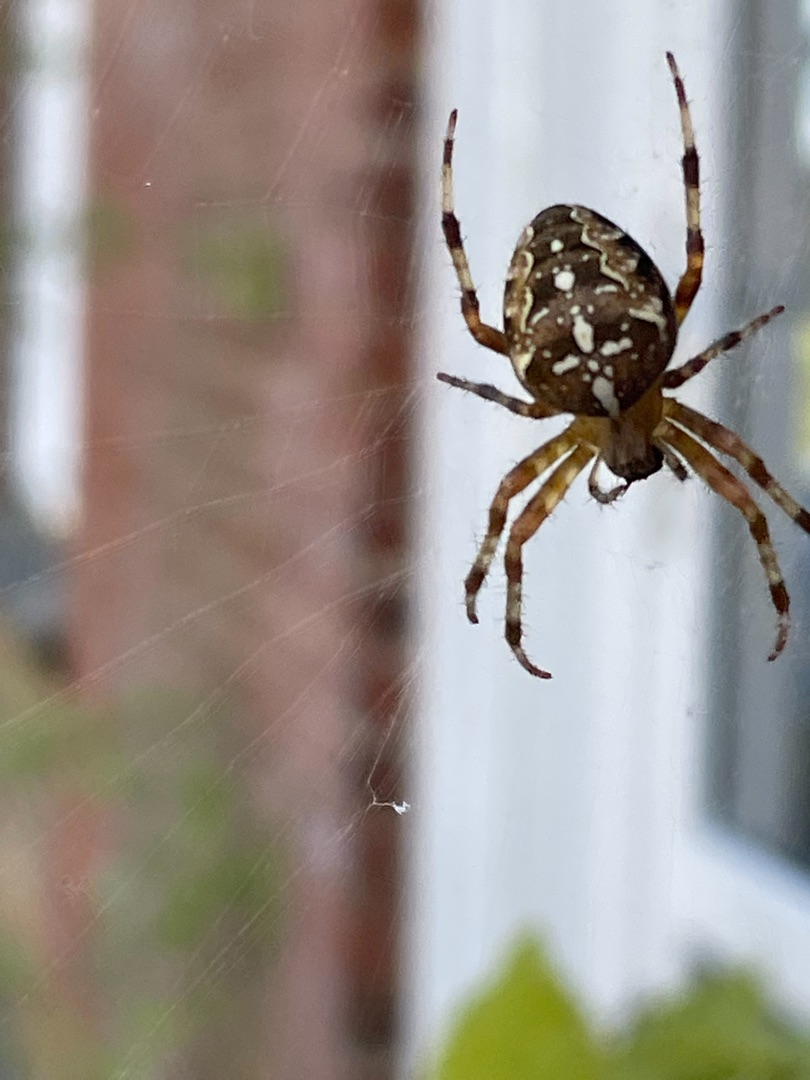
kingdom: Animalia
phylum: Arthropoda
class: Arachnida
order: Araneae
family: Araneidae
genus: Araneus
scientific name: Araneus diadematus
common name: Korsedderkop
